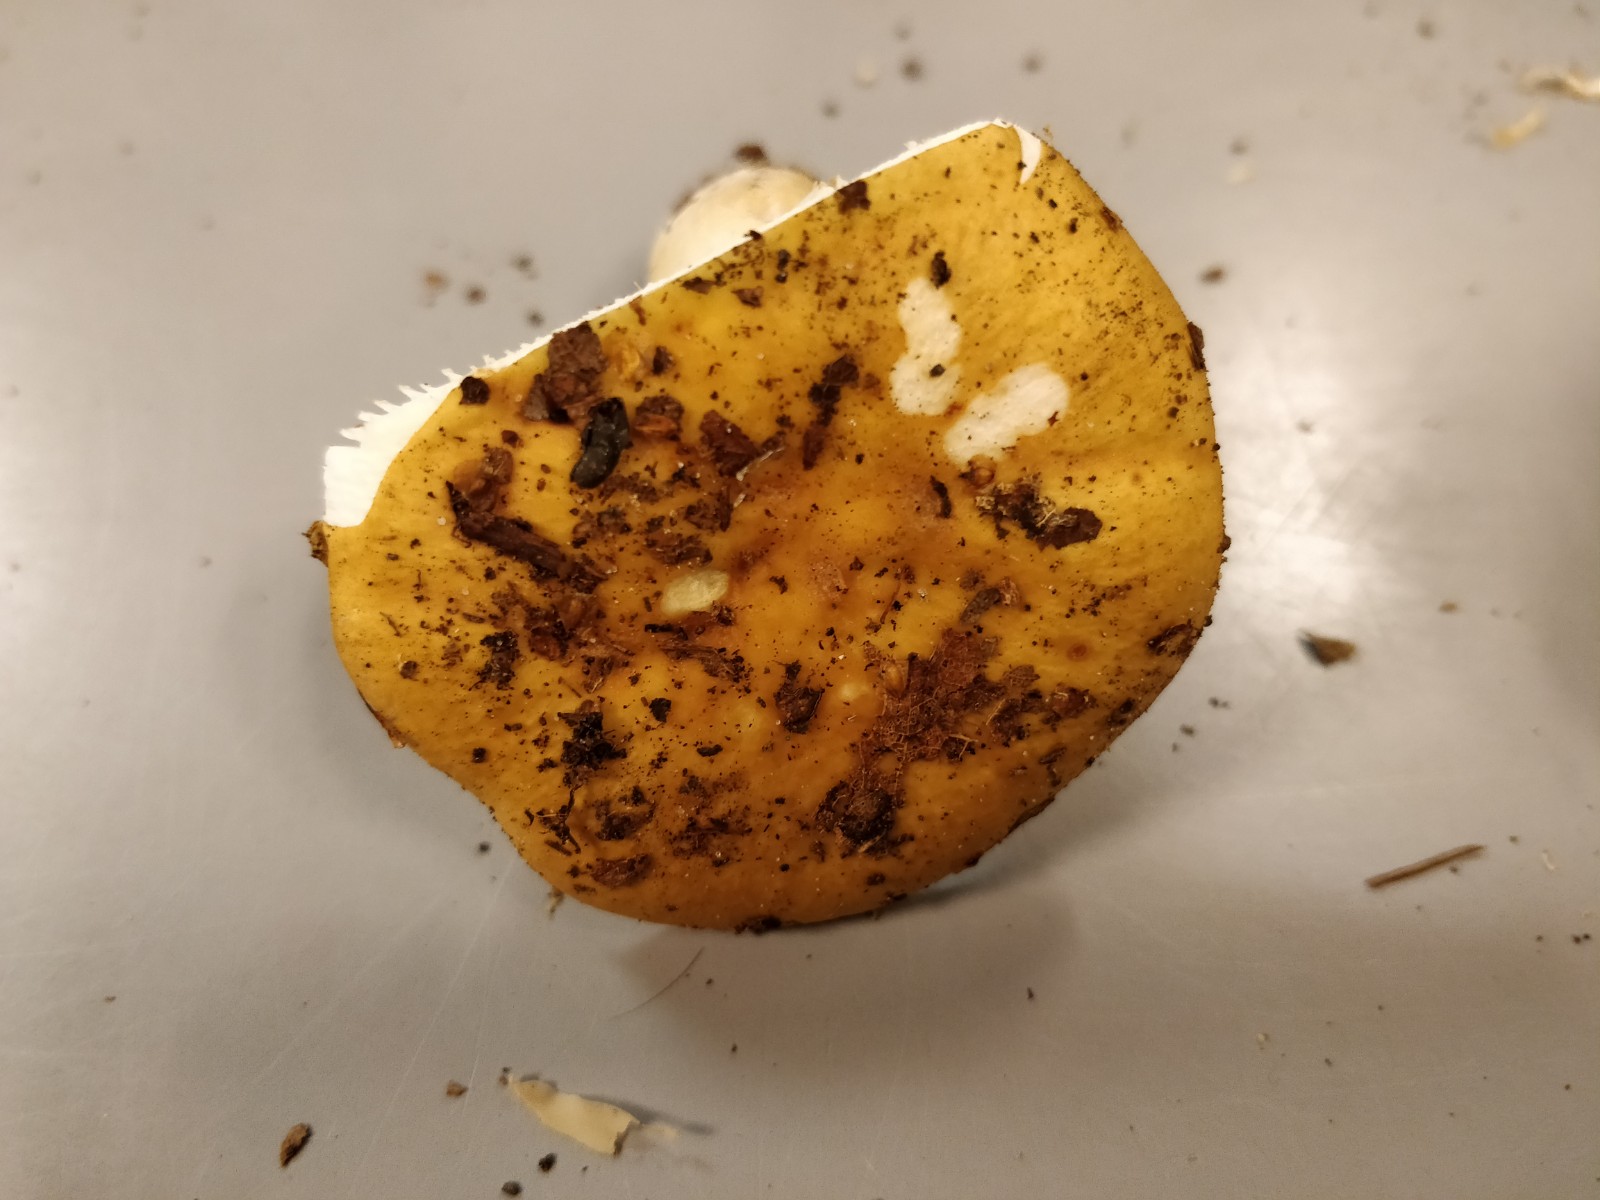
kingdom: Fungi
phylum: Basidiomycota
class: Agaricomycetes
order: Russulales
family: Russulaceae
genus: Russula
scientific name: Russula ochroleuca
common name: okkergul skørhat
